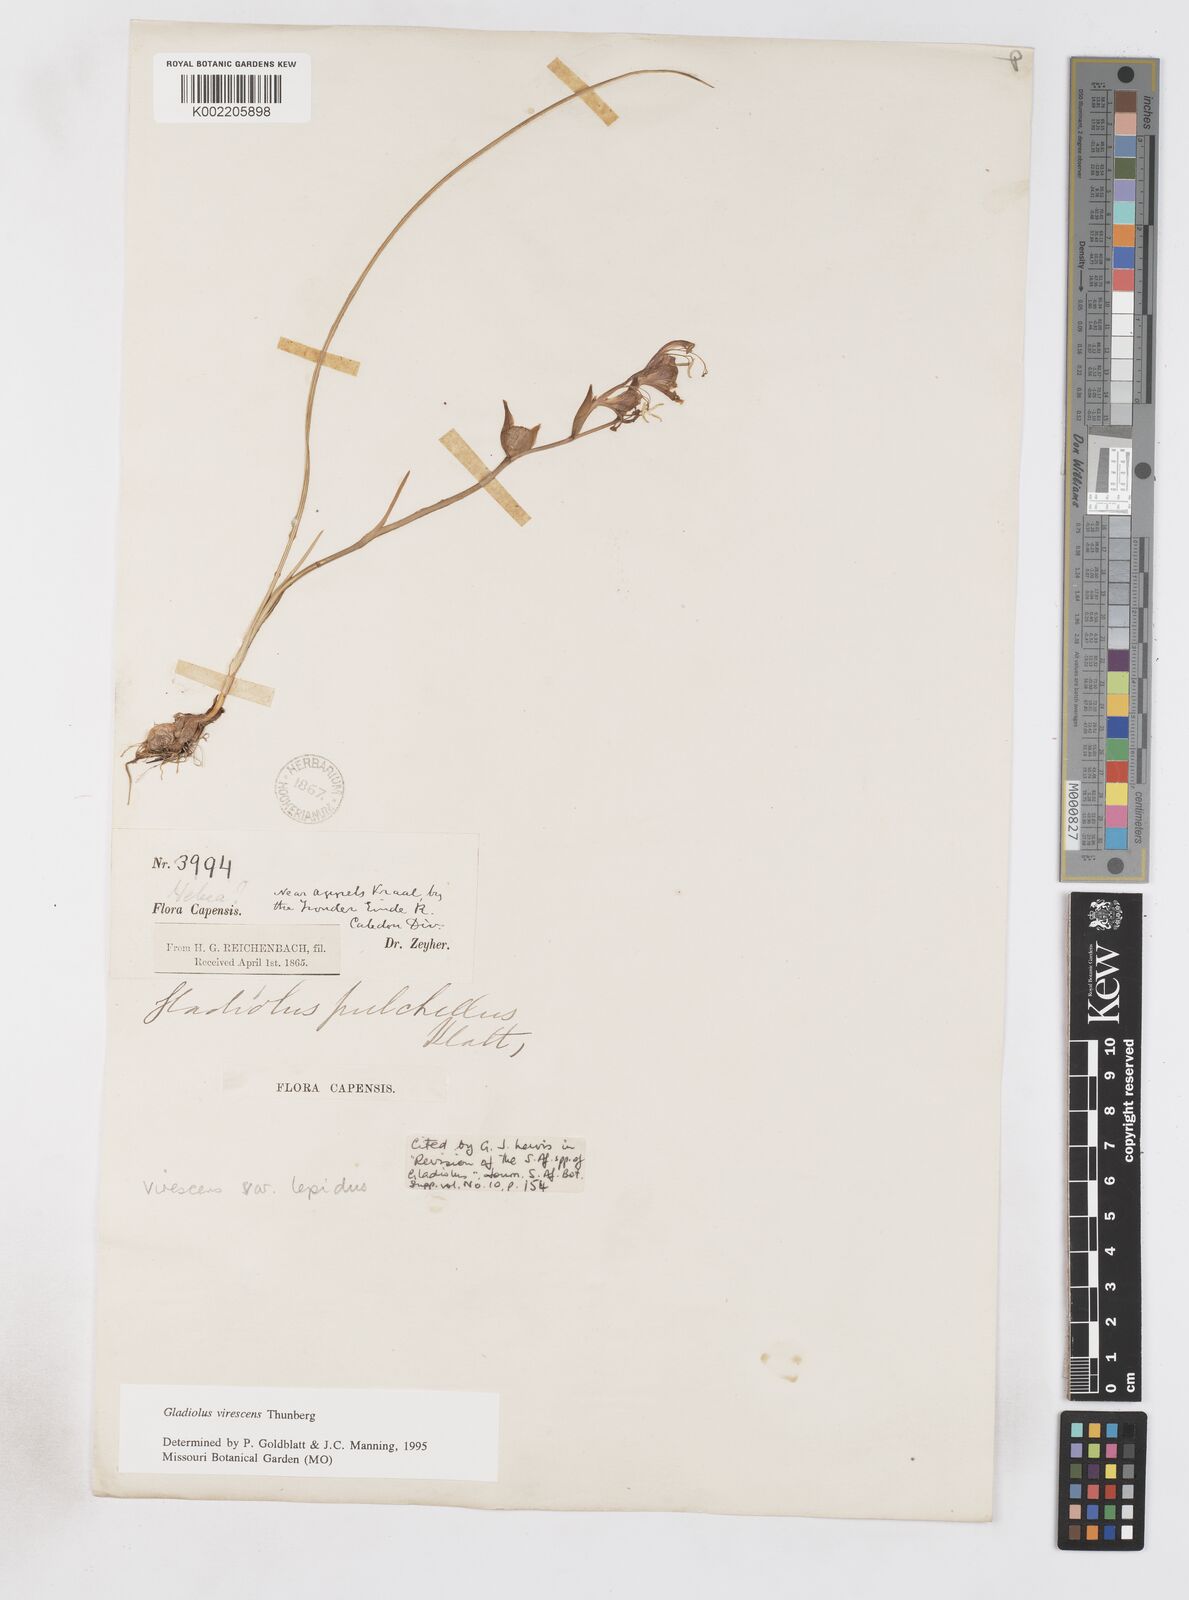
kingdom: Plantae
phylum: Tracheophyta
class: Liliopsida
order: Asparagales
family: Iridaceae
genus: Gladiolus
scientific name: Gladiolus virescens
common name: Yellow kalkoentjie
